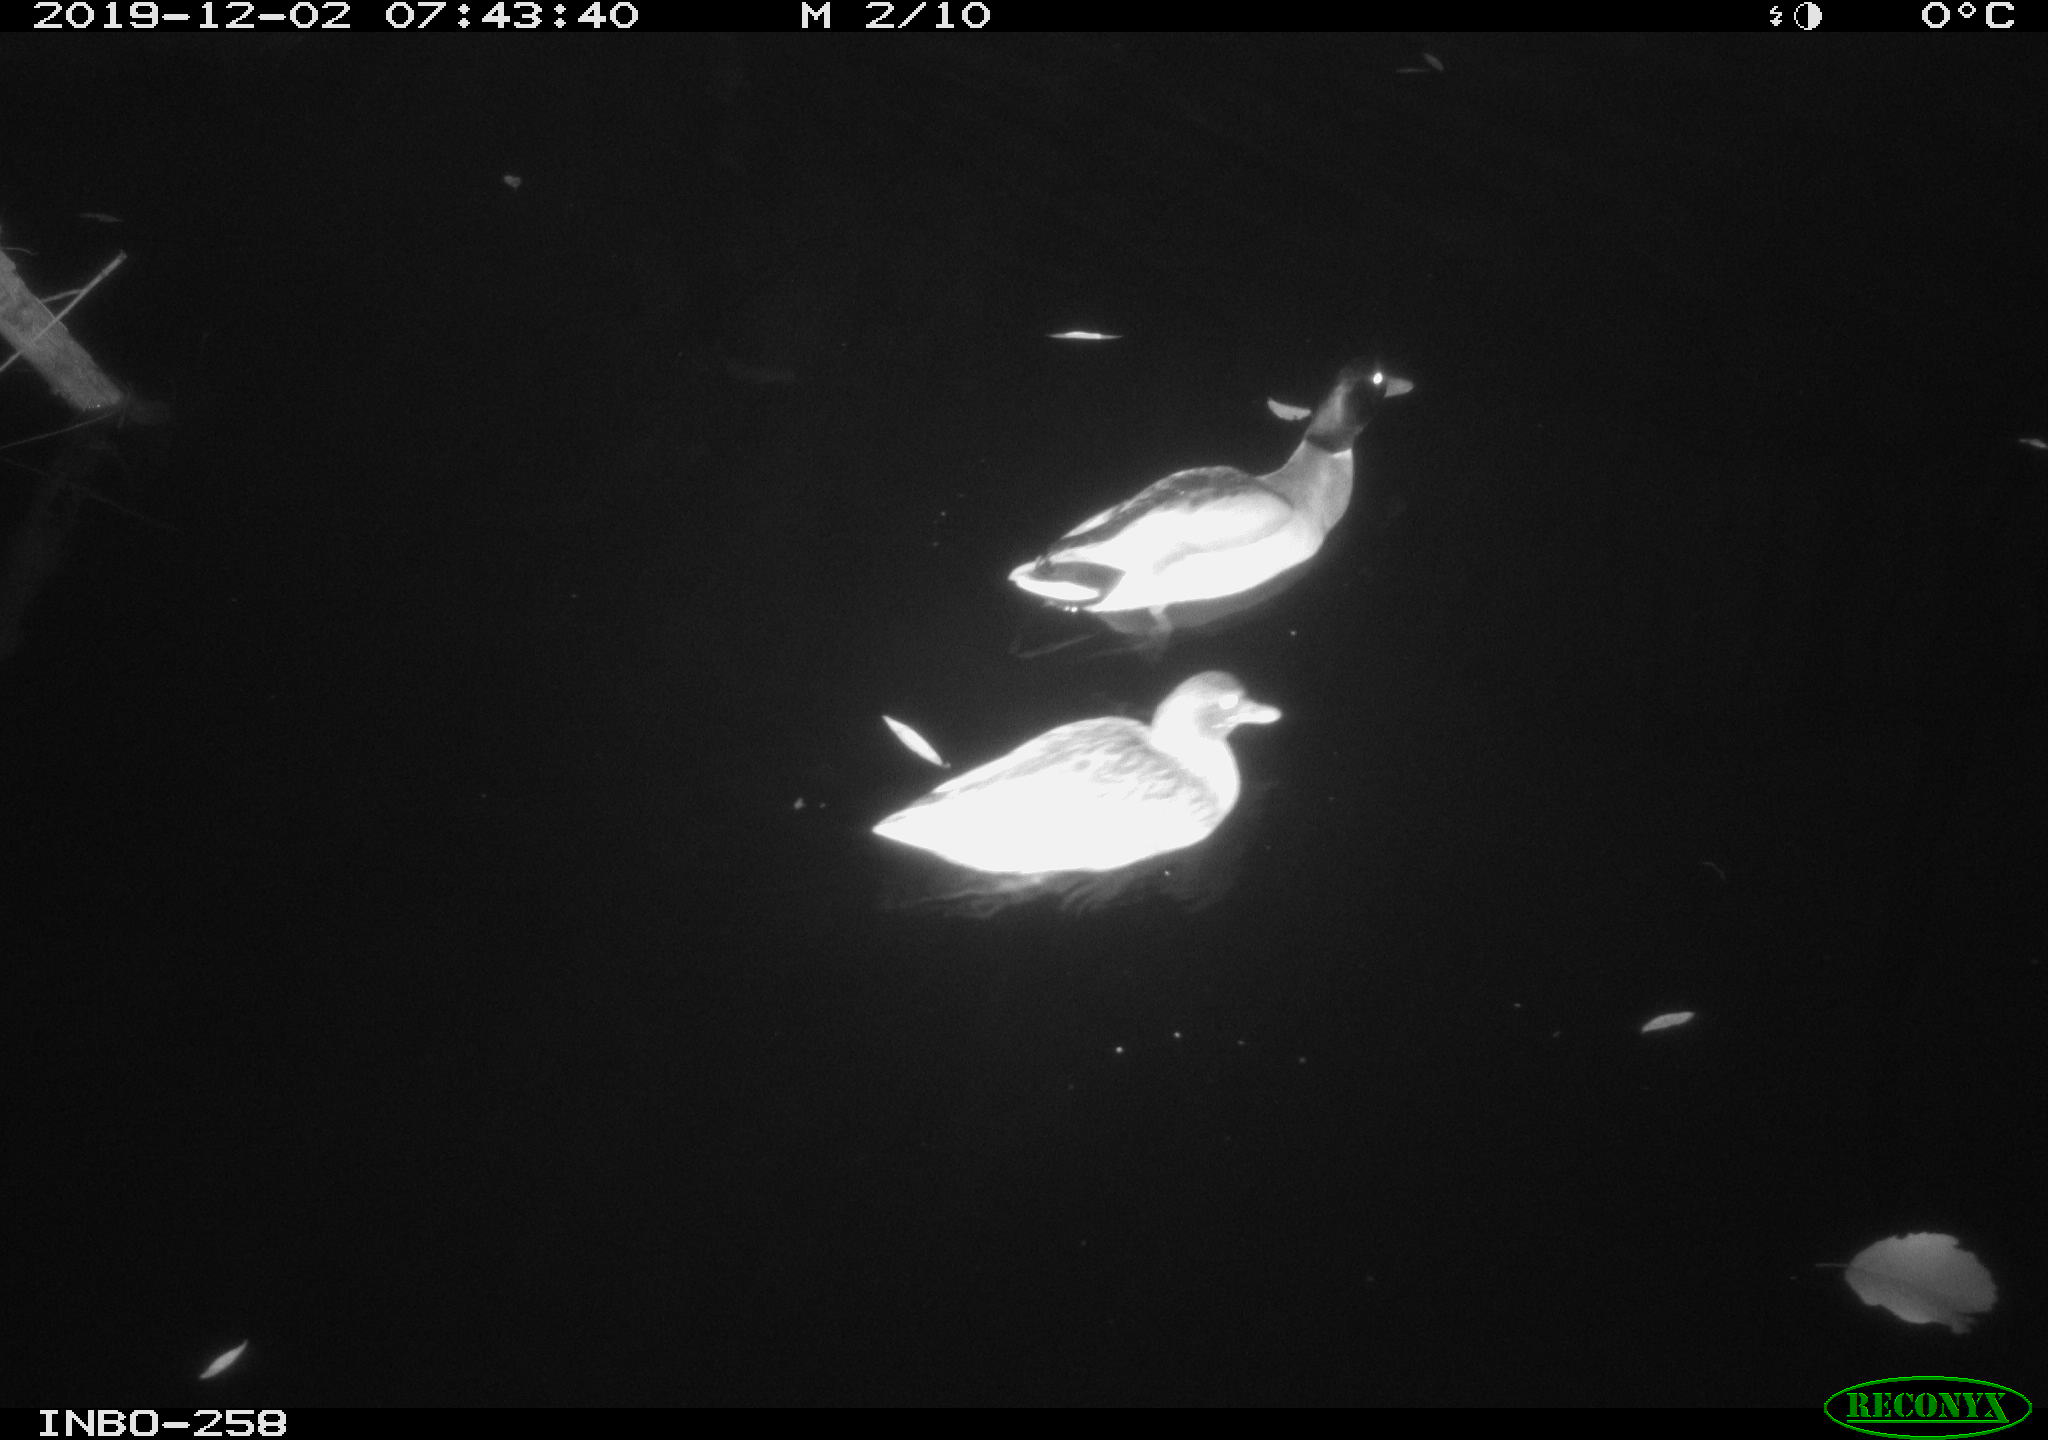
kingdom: Animalia
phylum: Chordata
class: Aves
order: Anseriformes
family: Anatidae
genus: Anas
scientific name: Anas platyrhynchos
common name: Mallard
